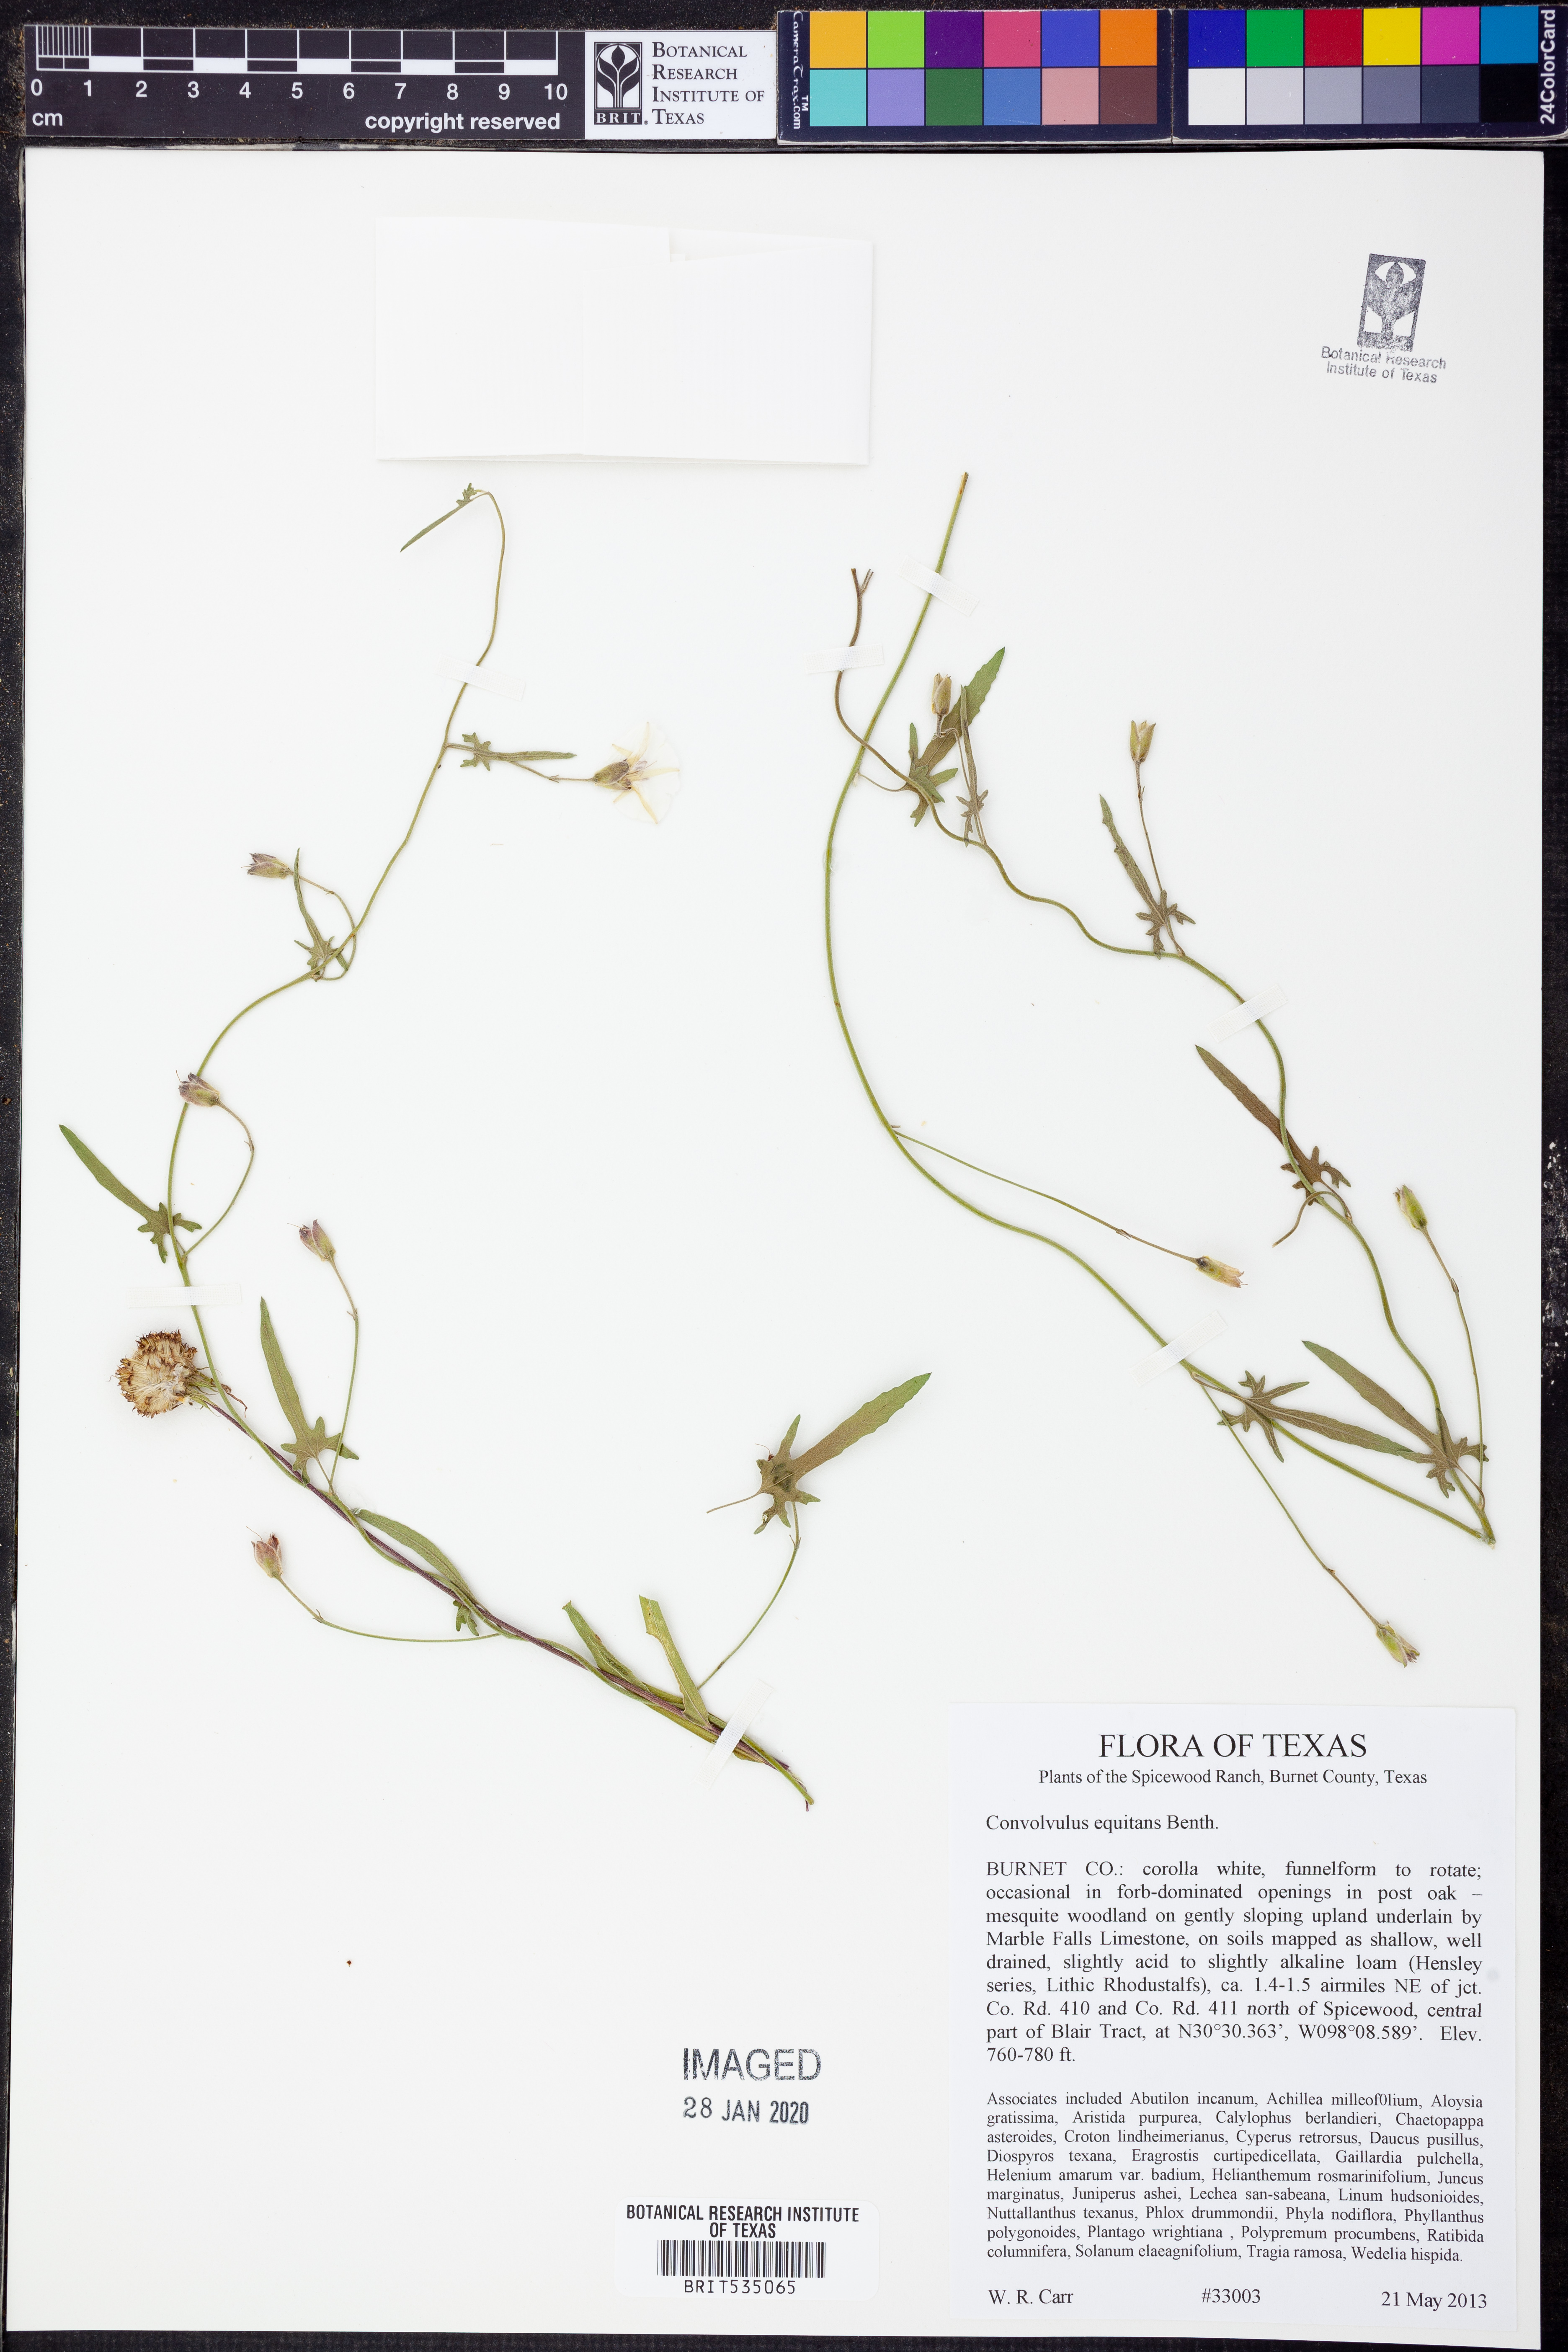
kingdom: Plantae
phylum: Tracheophyta
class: Magnoliopsida
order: Solanales
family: Convolvulaceae
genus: Convolvulus
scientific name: Convolvulus equitans
